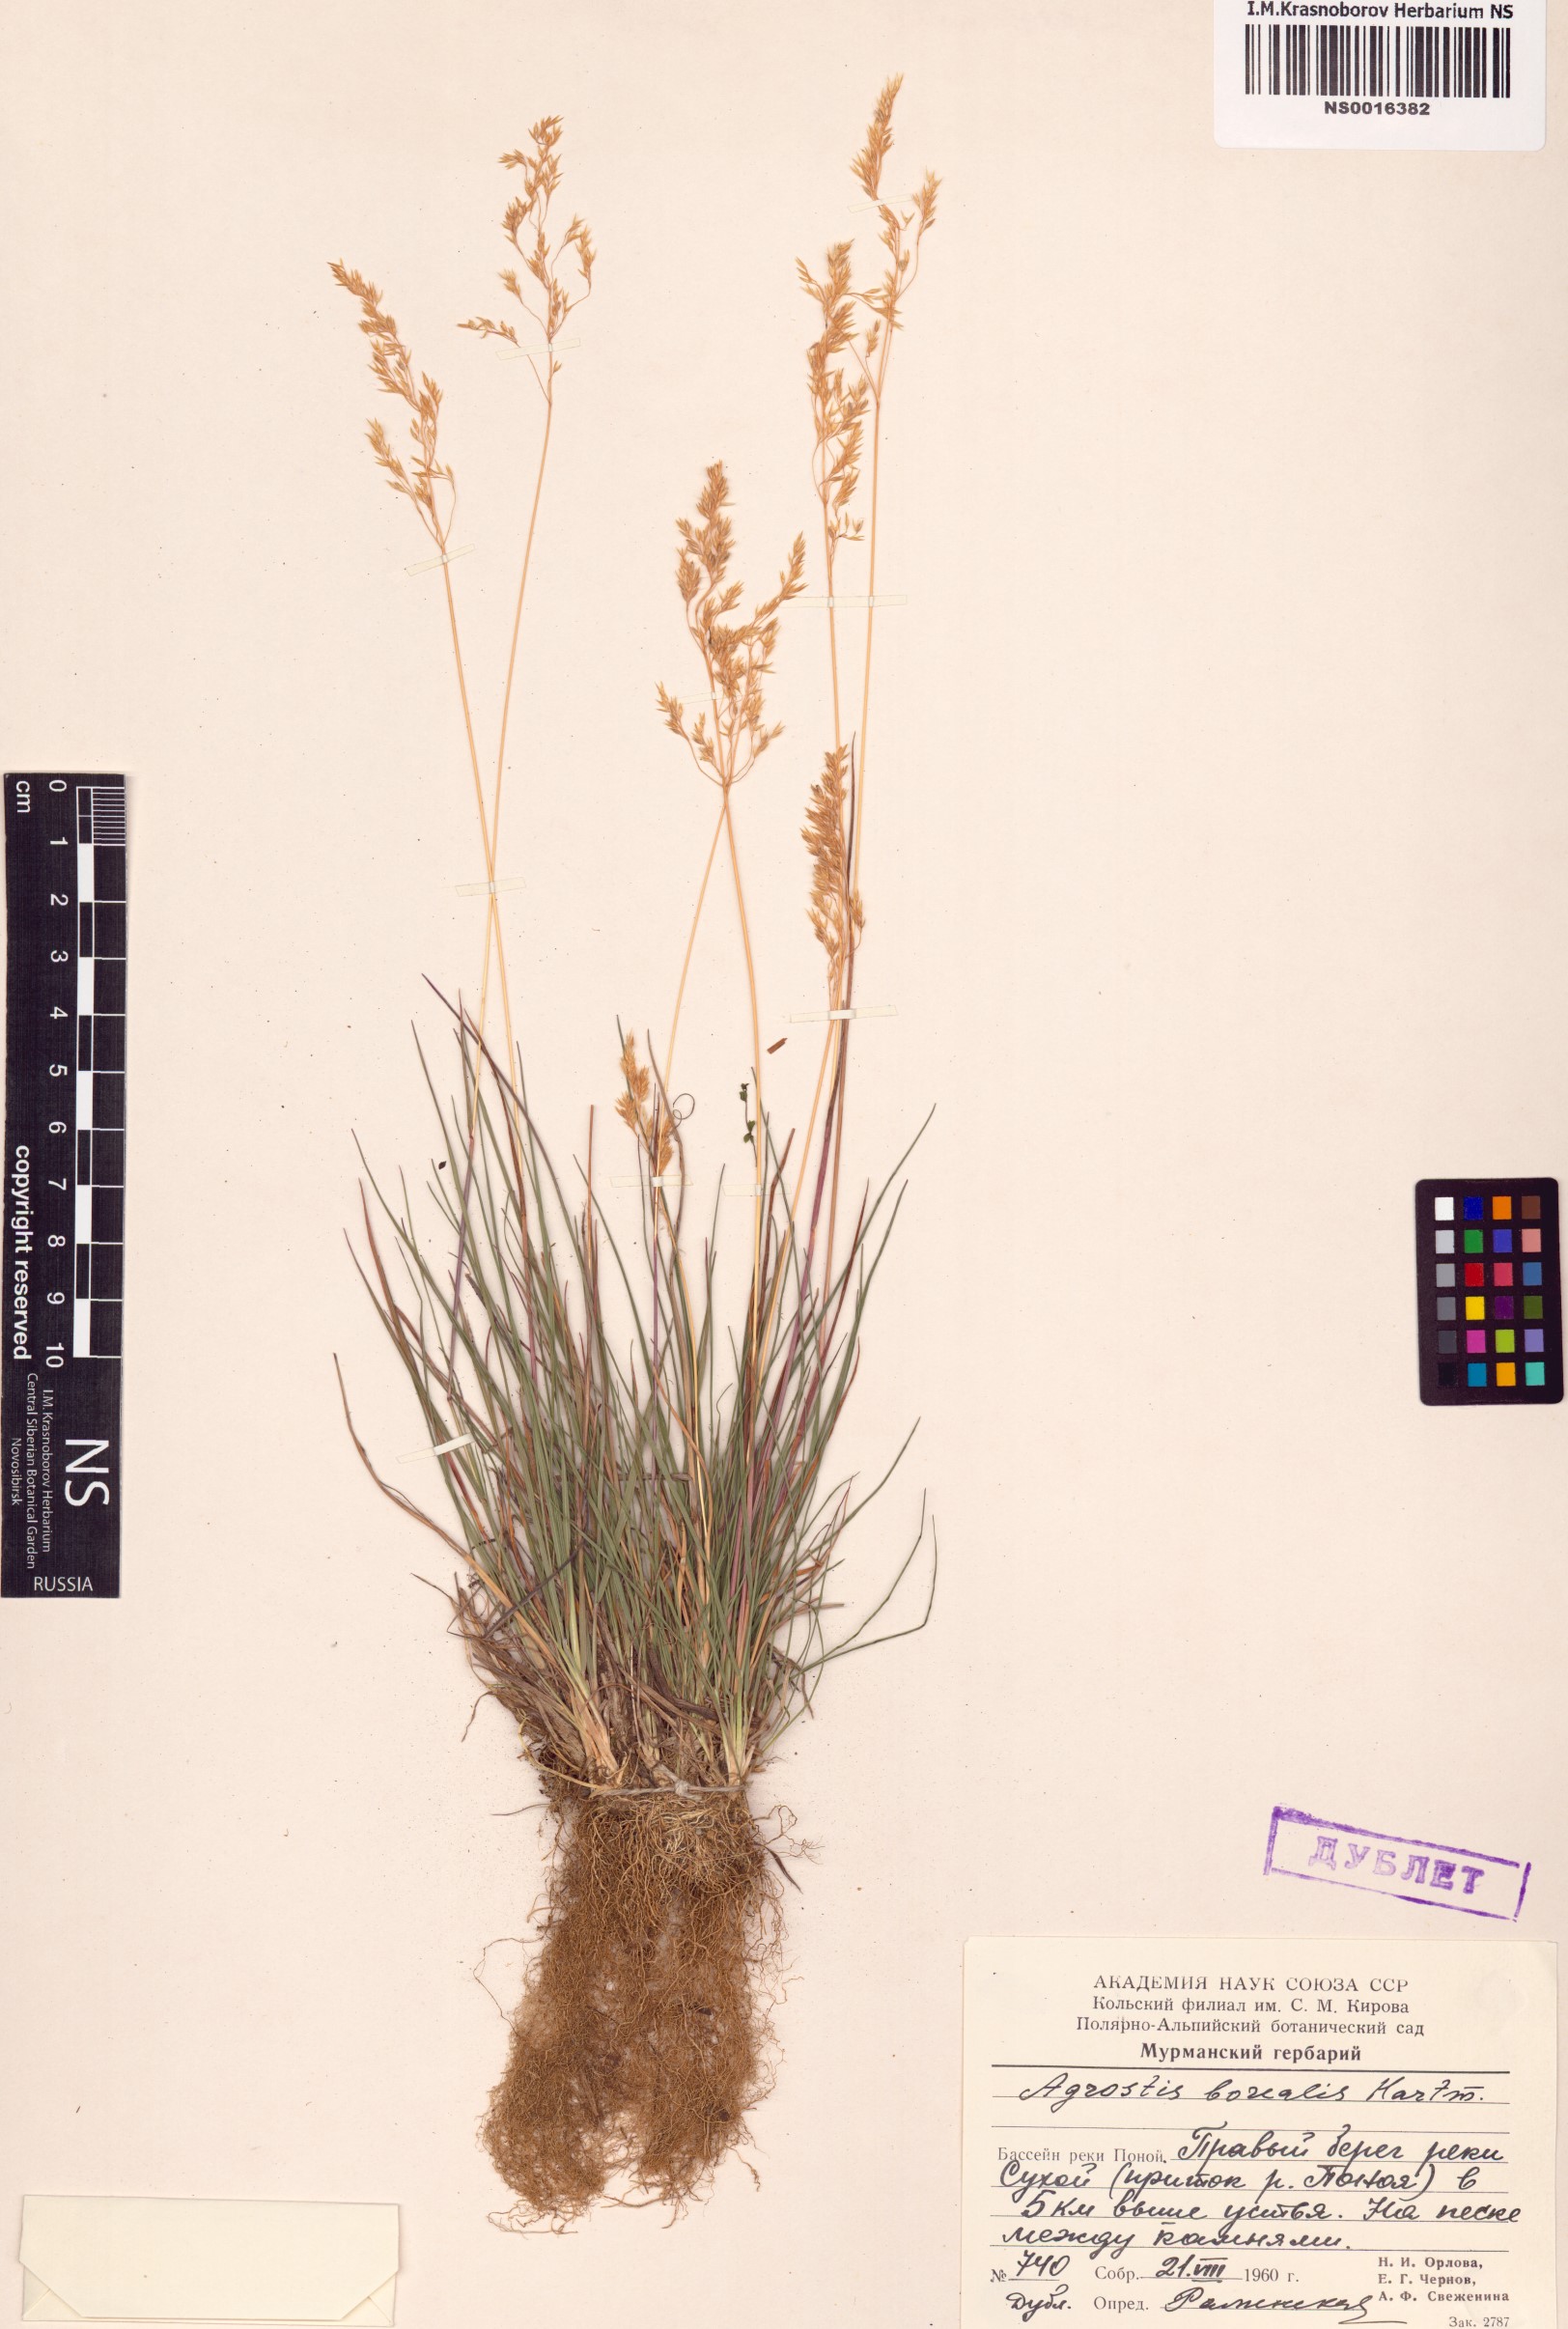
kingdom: Plantae
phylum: Tracheophyta
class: Liliopsida
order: Poales
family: Poaceae
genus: Agrostis
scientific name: Agrostis mertensii
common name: Northern bent
